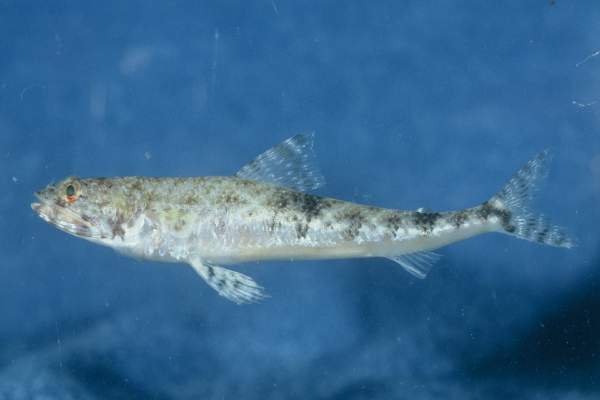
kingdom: Animalia
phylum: Chordata
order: Aulopiformes
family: Synodontidae
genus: Saurida
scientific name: Saurida gracilis
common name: Slender lizardfish
